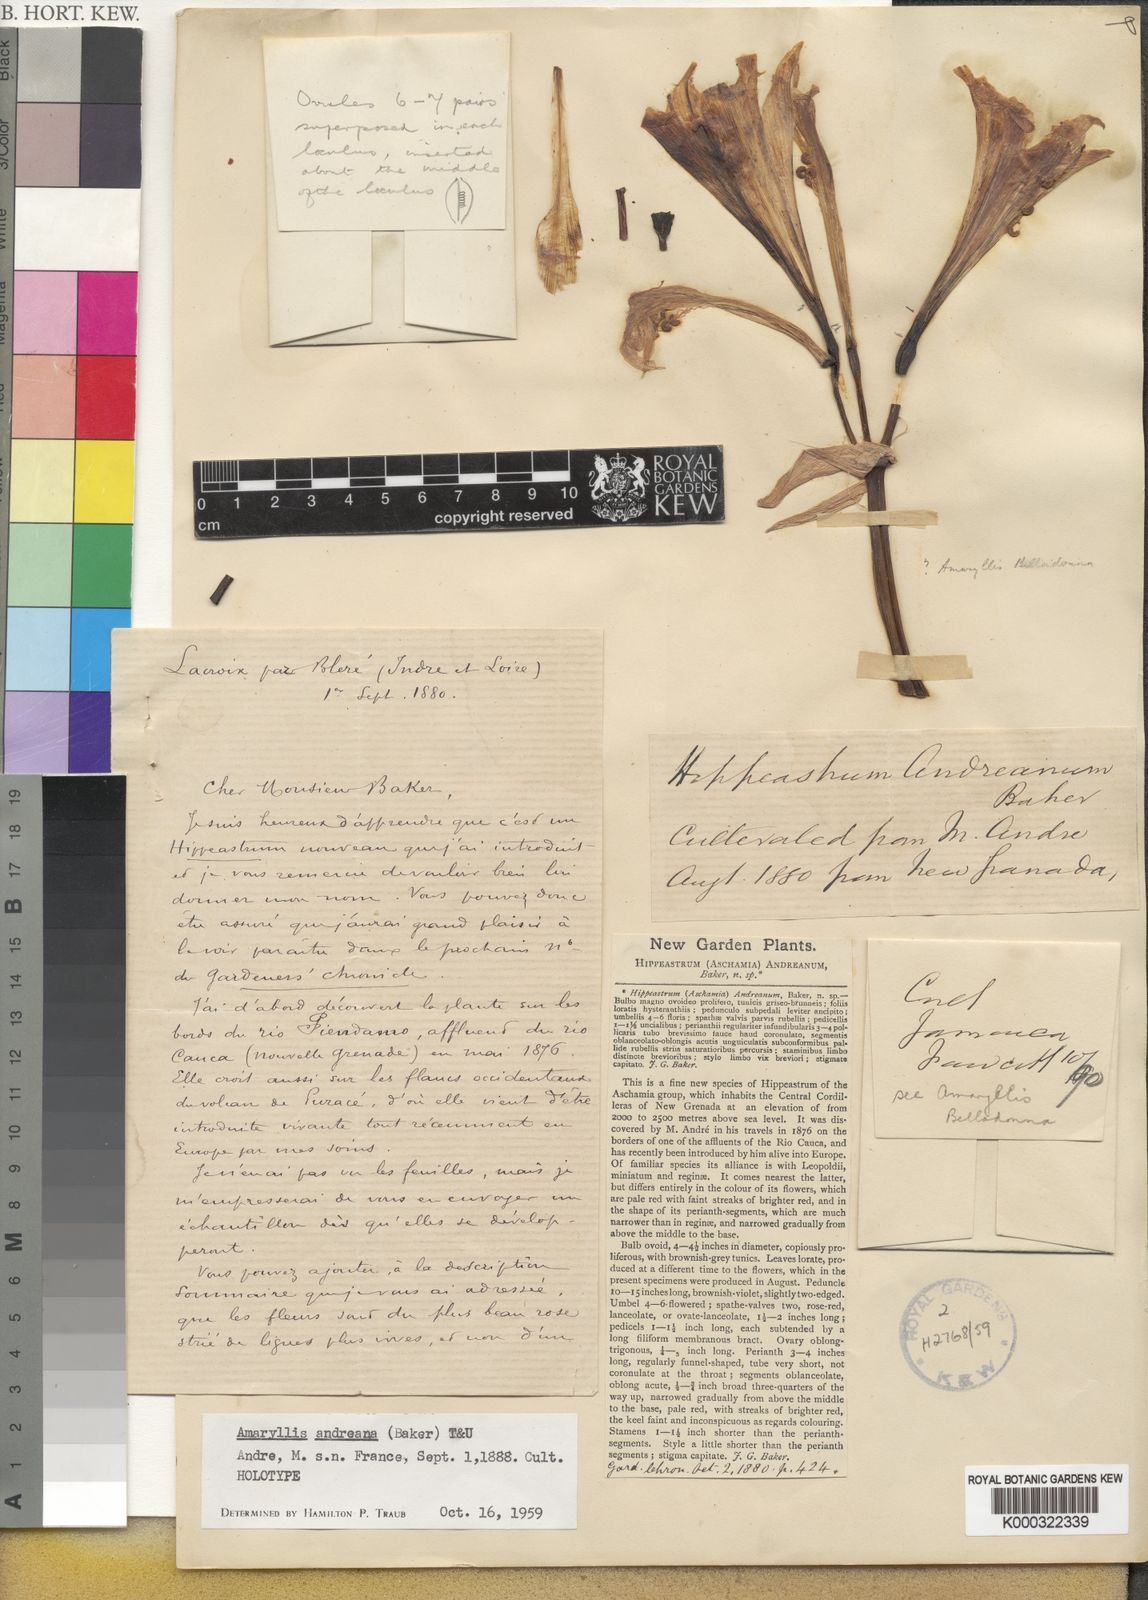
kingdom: Plantae
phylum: Tracheophyta
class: Liliopsida
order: Asparagales
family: Amaryllidaceae
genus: Hippeastrum
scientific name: Hippeastrum andreanum
